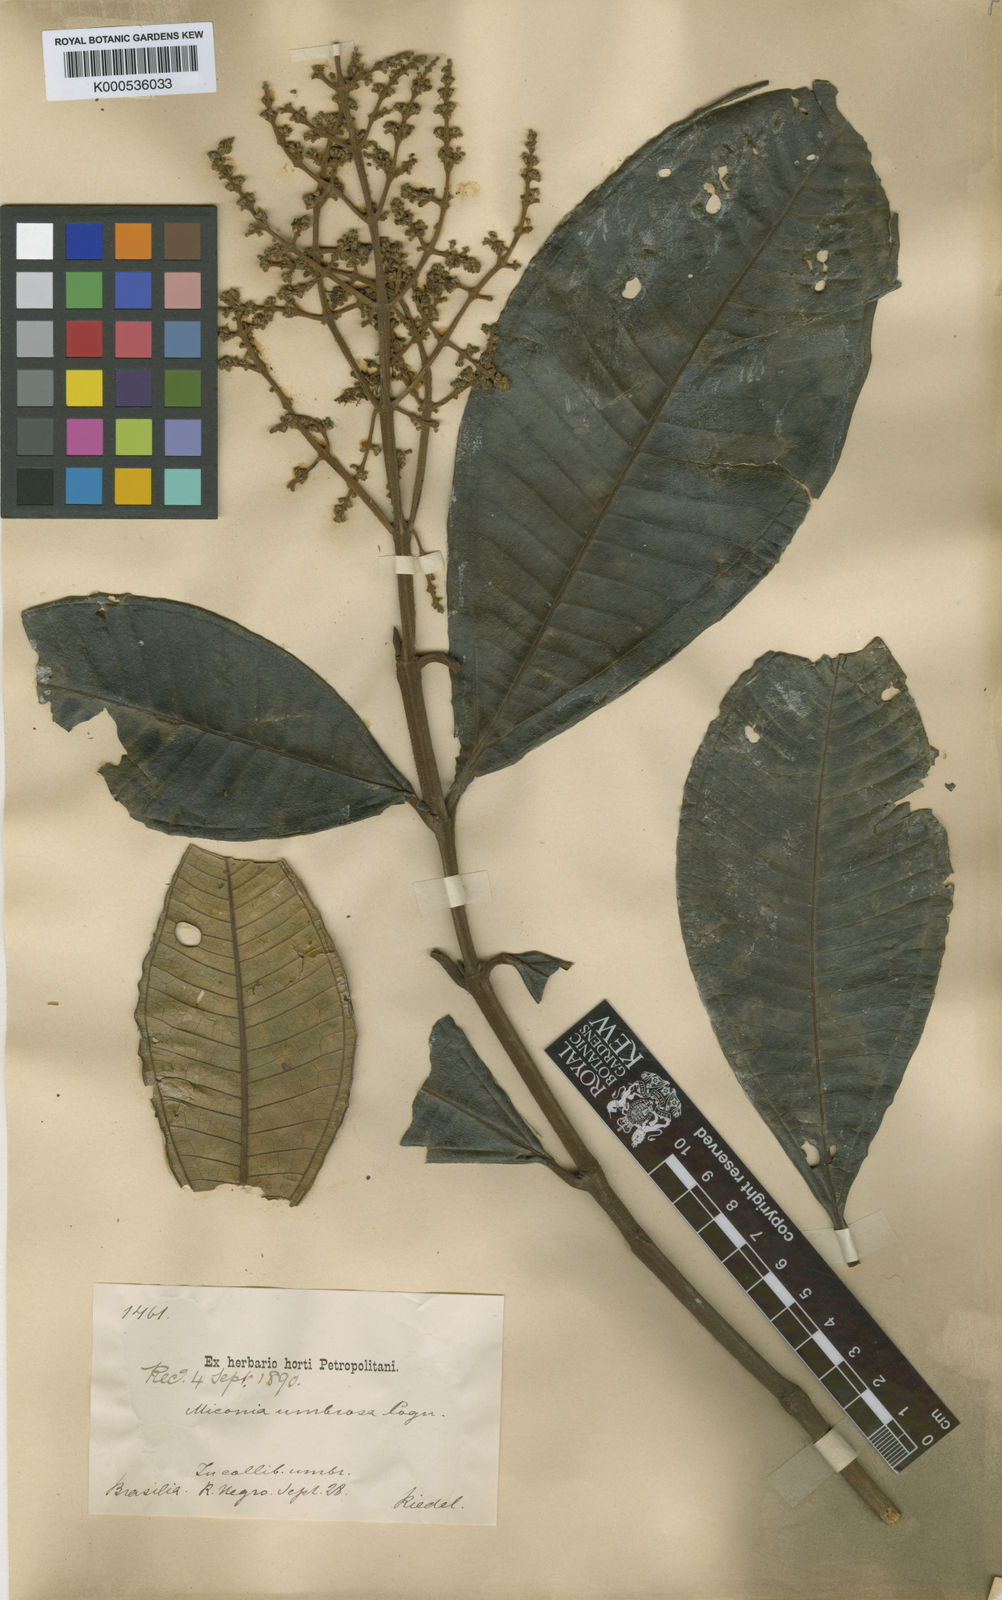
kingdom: Plantae
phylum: Tracheophyta
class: Magnoliopsida
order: Myrtales
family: Melastomataceae
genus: Miconia
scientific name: Miconia umbrosa
